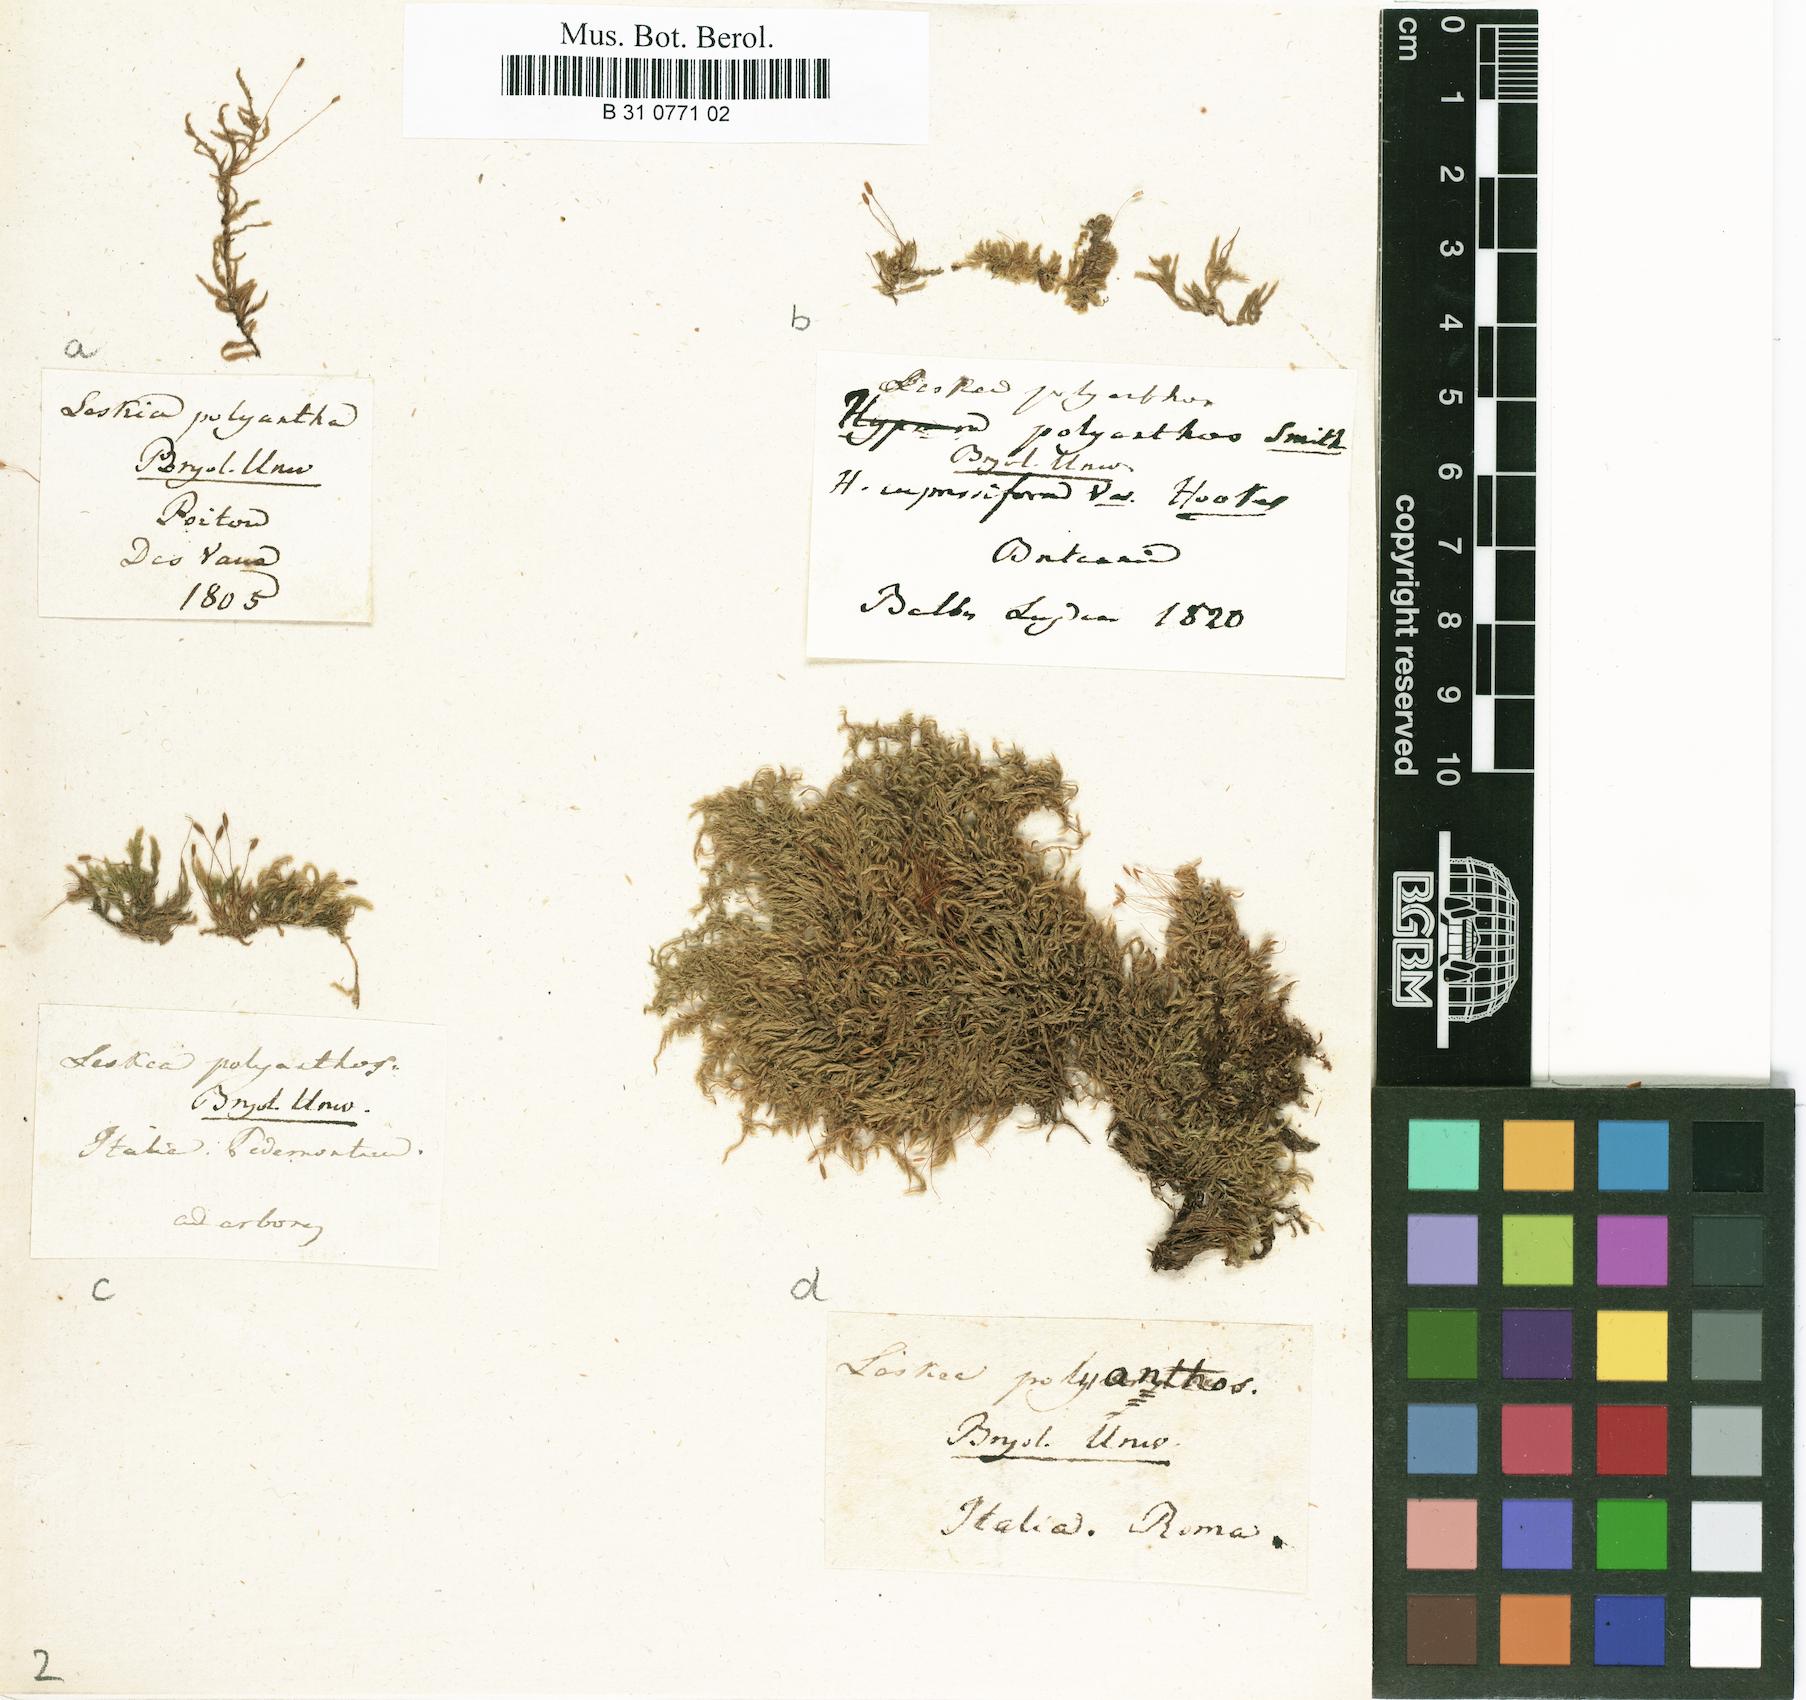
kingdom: Plantae
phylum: Bryophyta
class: Bryopsida
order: Hypnales
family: Pylaisiaceae
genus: Pylaisia
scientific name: Pylaisia polyantha
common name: Many-flowered leskea
